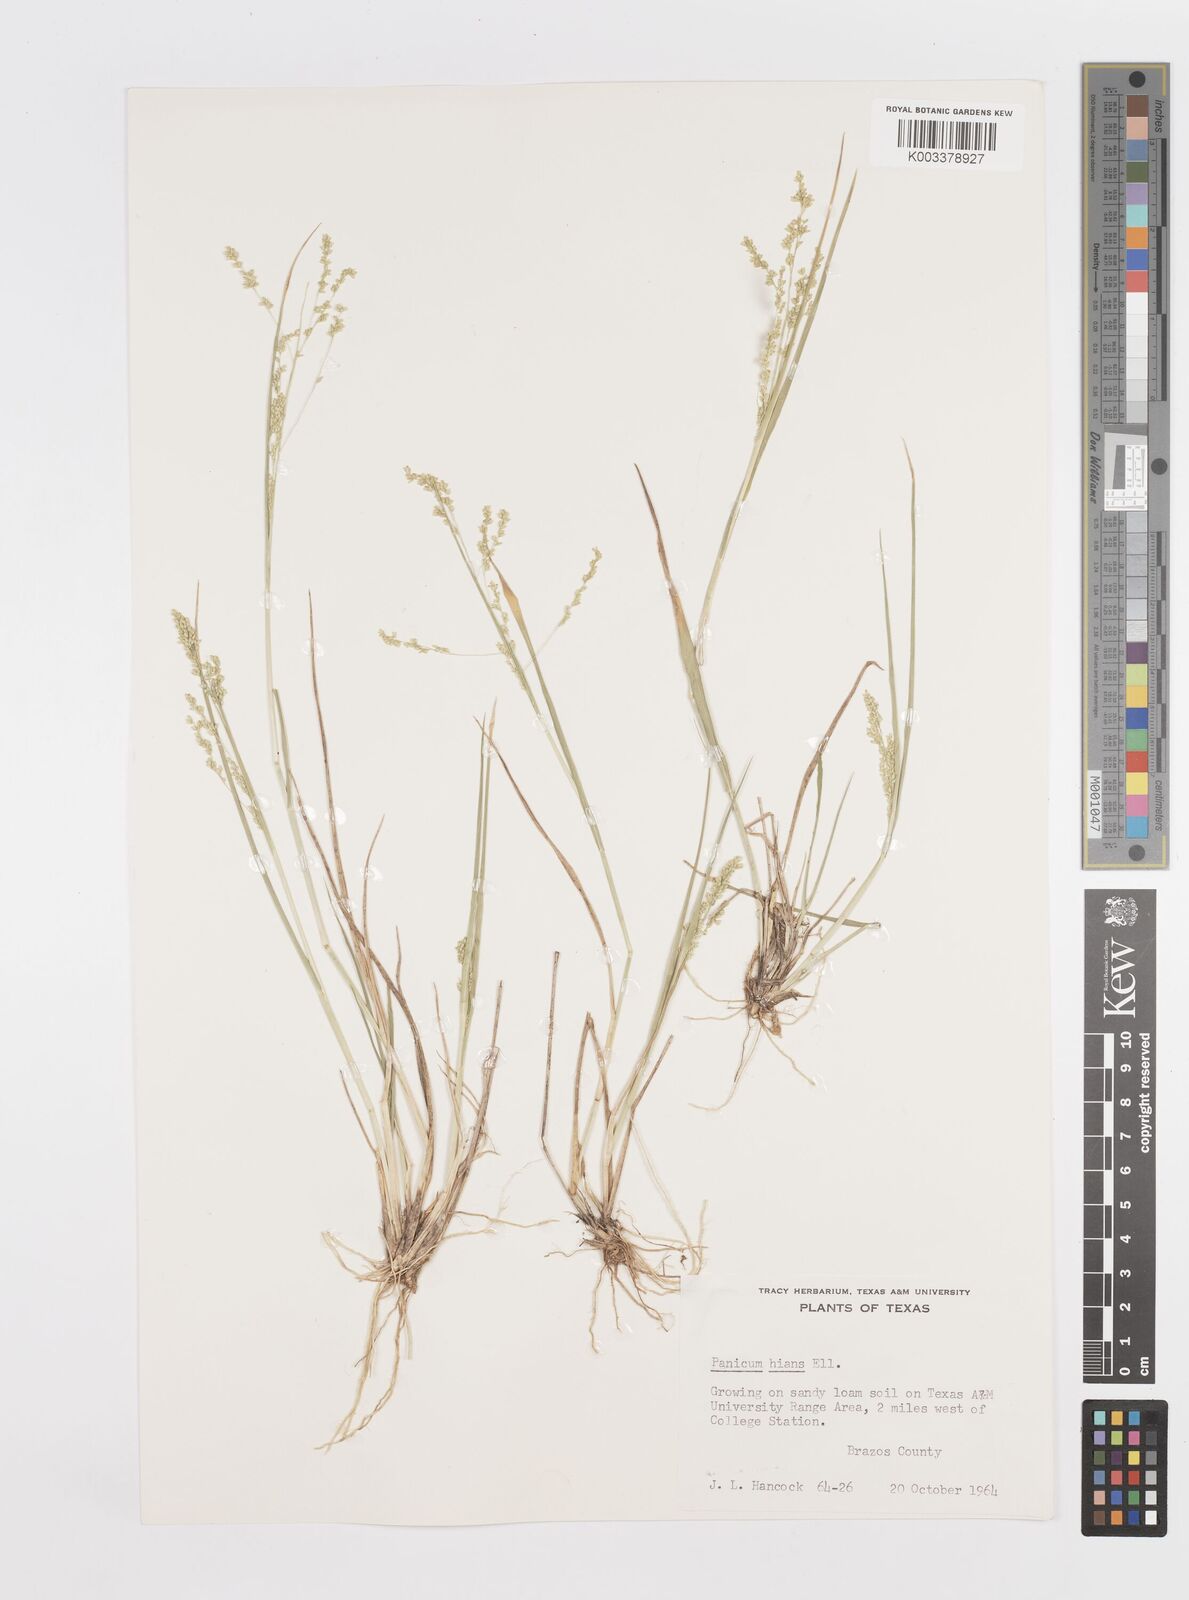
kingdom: Plantae
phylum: Tracheophyta
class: Liliopsida
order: Poales
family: Poaceae
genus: Steinchisma
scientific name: Steinchisma hians
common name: Gaping panic grass
